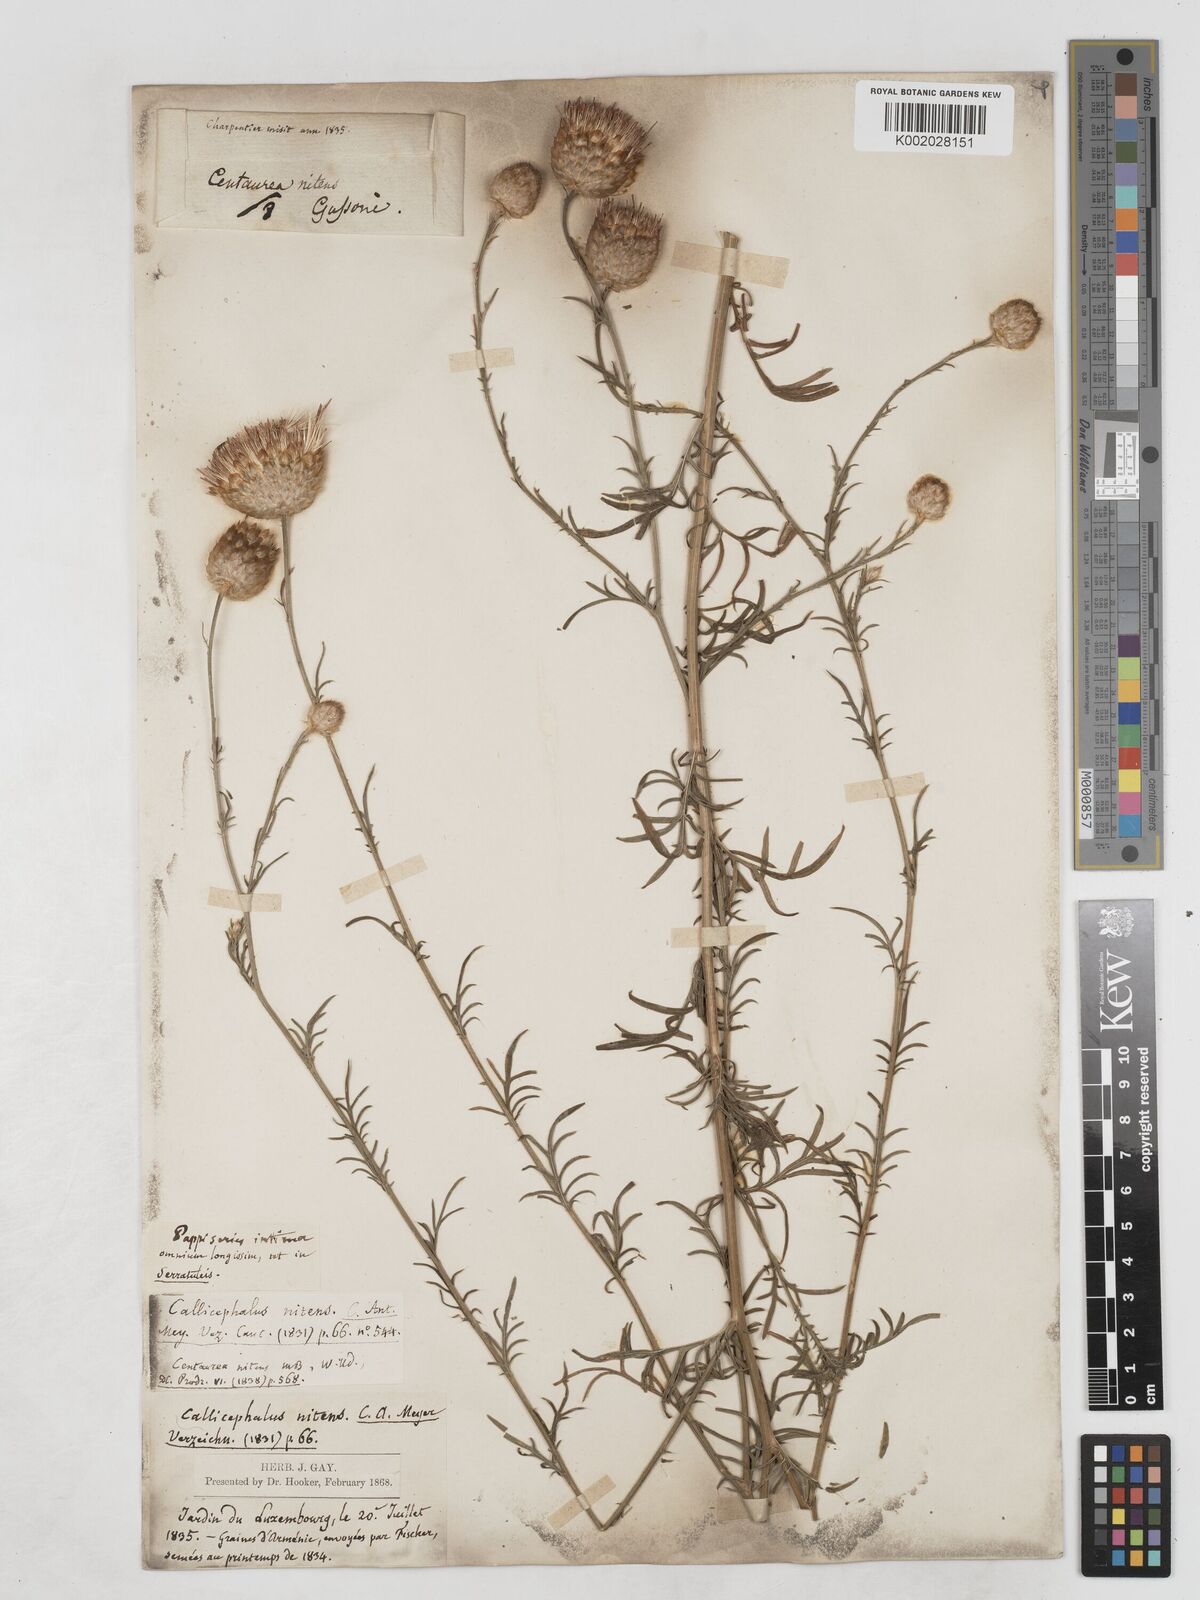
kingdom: Plantae
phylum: Tracheophyta
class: Magnoliopsida
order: Asterales
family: Asteraceae
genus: Callicephalus
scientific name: Callicephalus nitens
